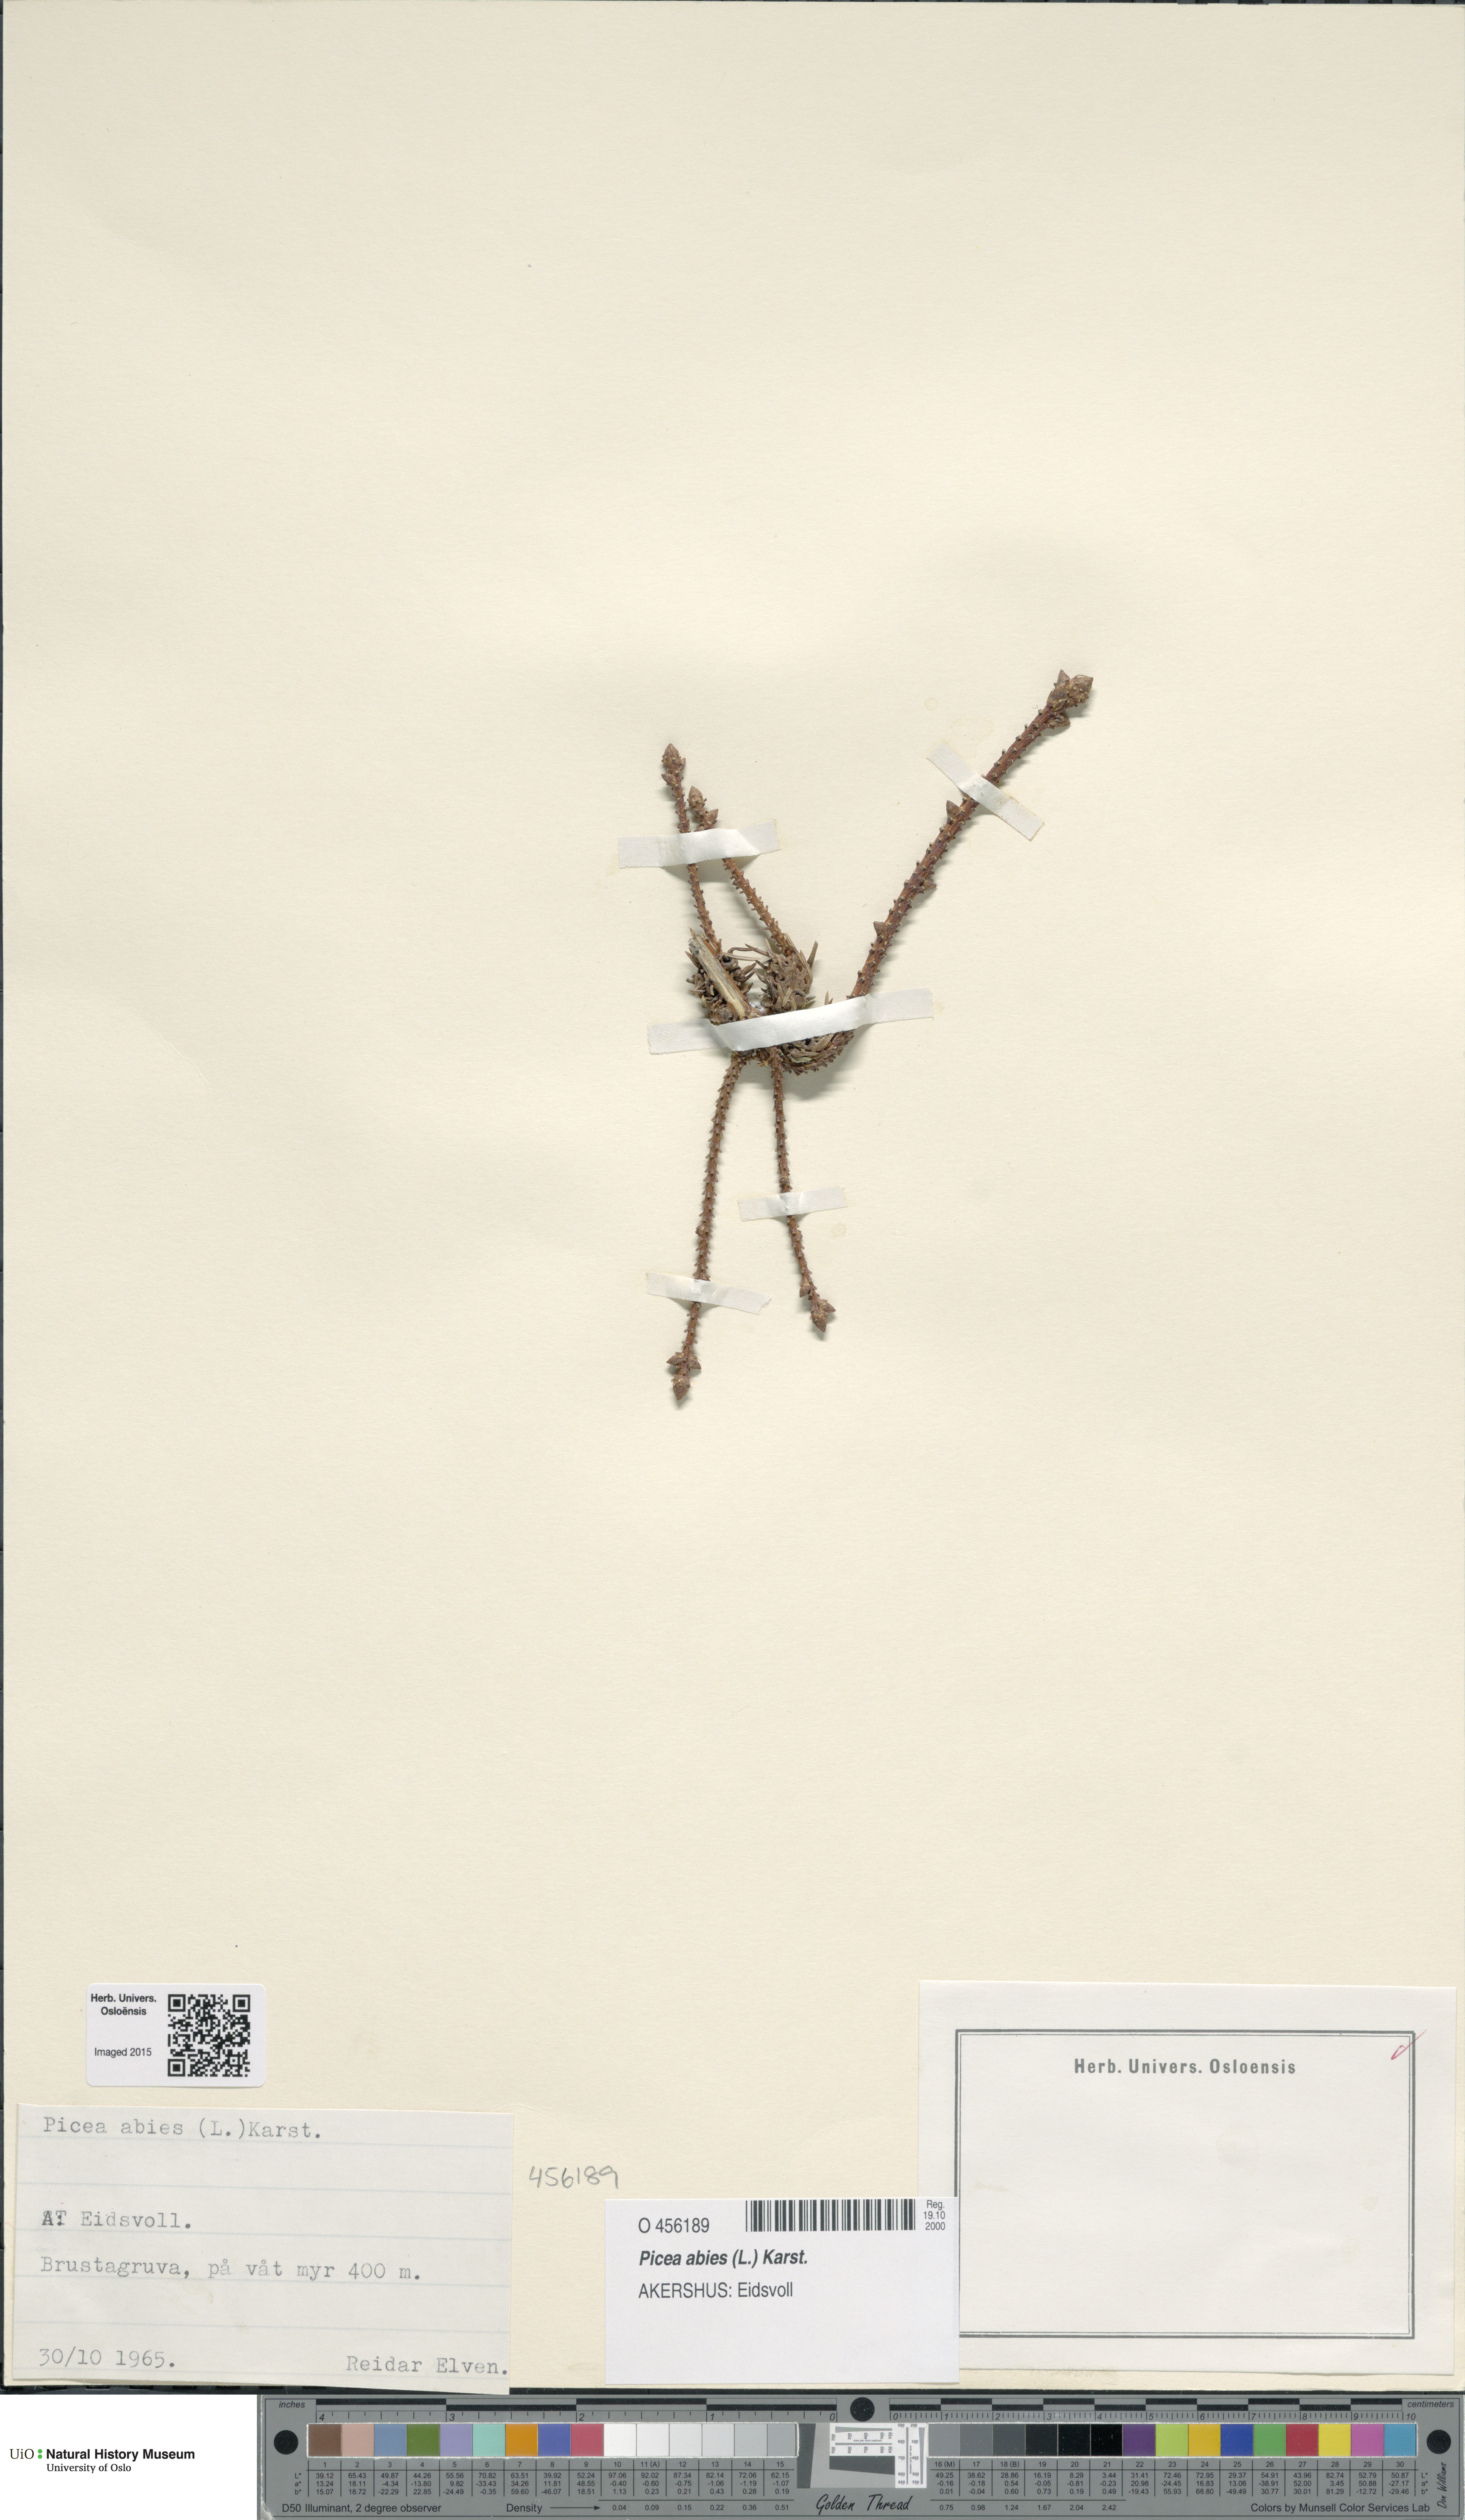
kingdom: Plantae
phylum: Tracheophyta
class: Pinopsida
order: Pinales
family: Pinaceae
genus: Picea
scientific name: Picea abies
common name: Norway spruce
